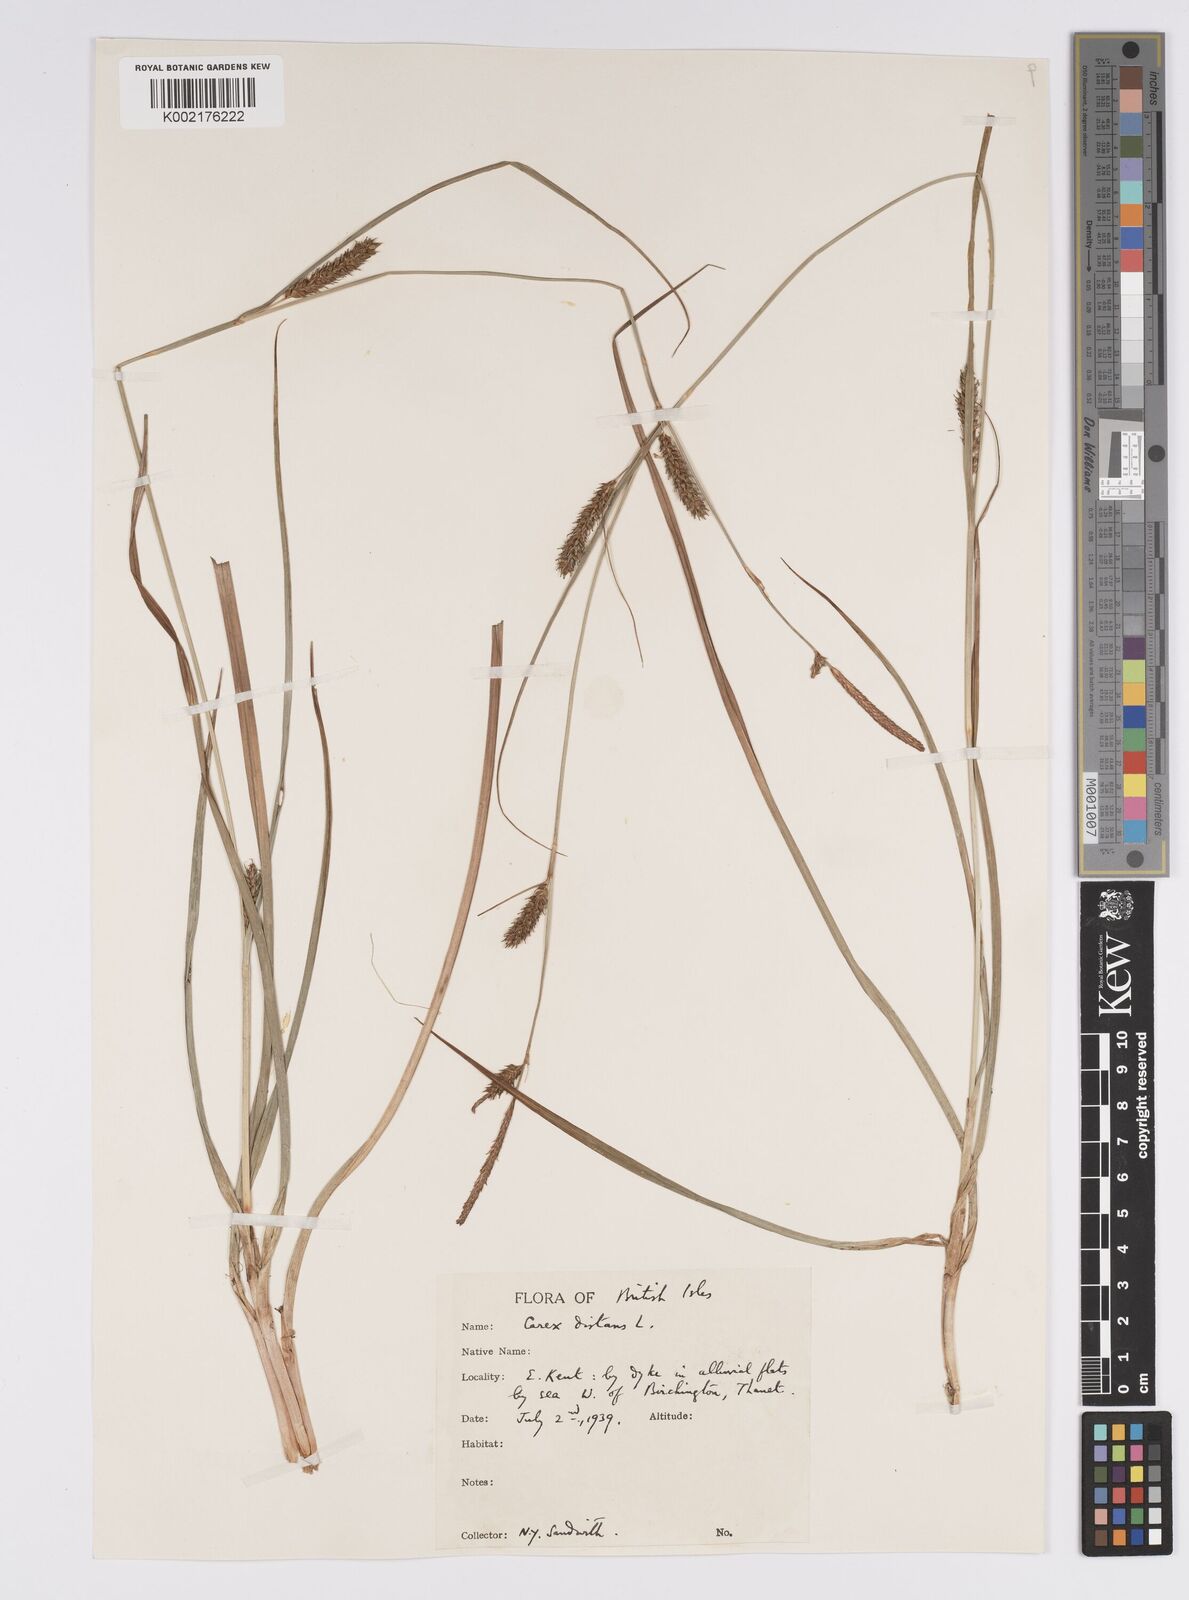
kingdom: Plantae
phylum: Tracheophyta
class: Liliopsida
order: Poales
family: Cyperaceae
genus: Carex
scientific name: Carex distans
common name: Distant sedge
